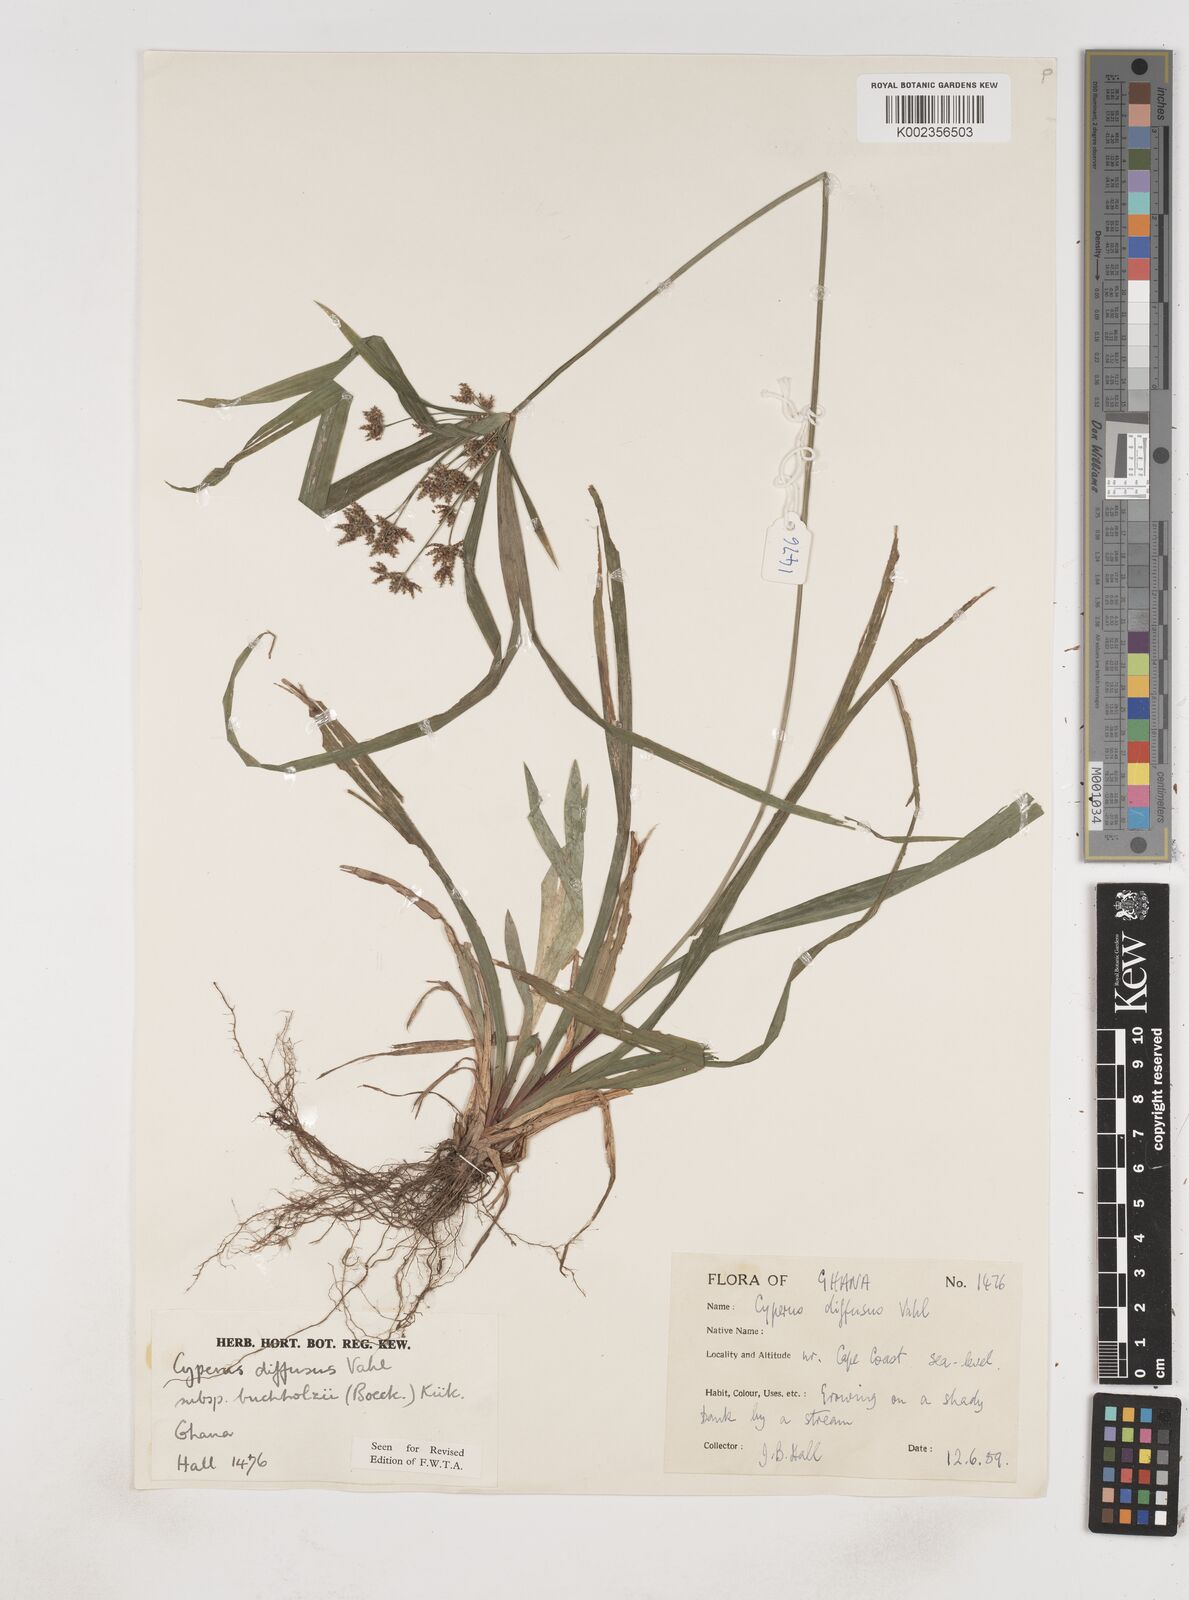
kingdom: Plantae
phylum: Tracheophyta
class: Liliopsida
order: Poales
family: Cyperaceae
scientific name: Cyperaceae
